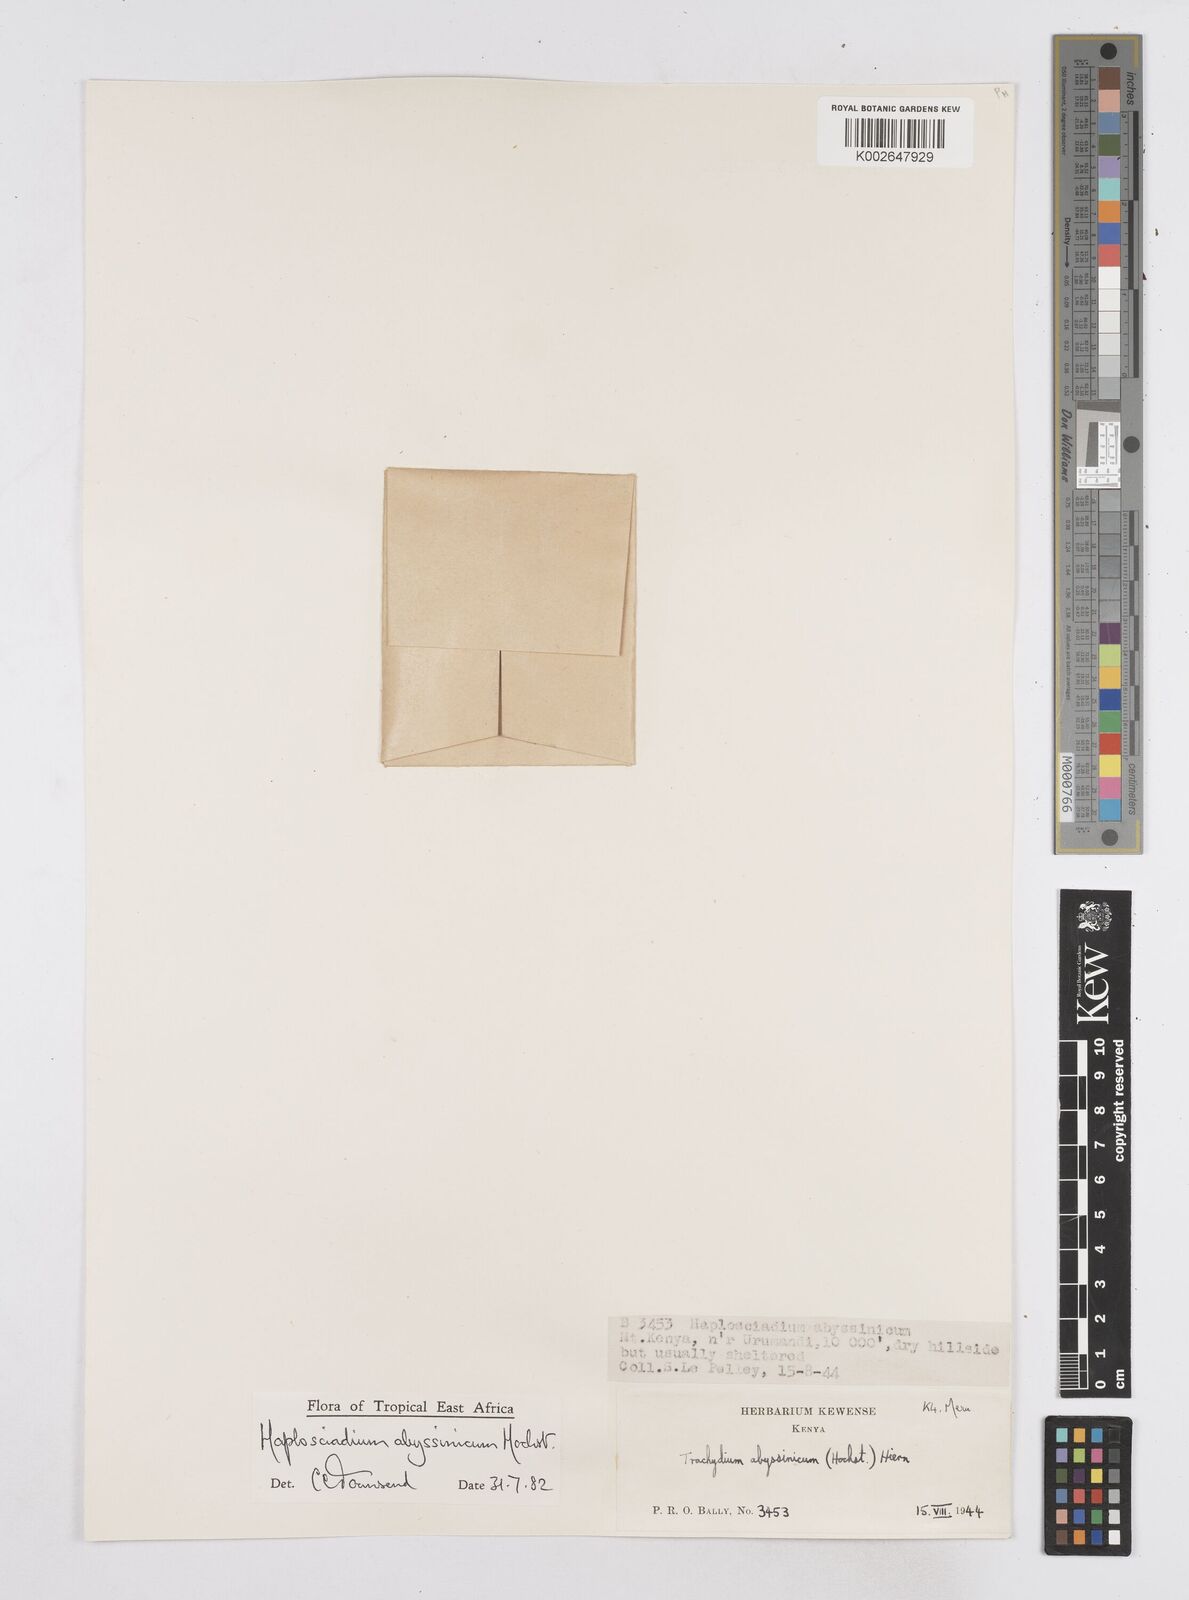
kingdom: Plantae
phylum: Tracheophyta
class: Magnoliopsida
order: Apiales
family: Apiaceae
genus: Haplosciadium
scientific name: Haplosciadium abyssinicum
